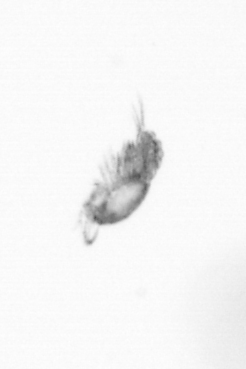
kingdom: Animalia
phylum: Arthropoda
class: Copepoda
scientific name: Copepoda
